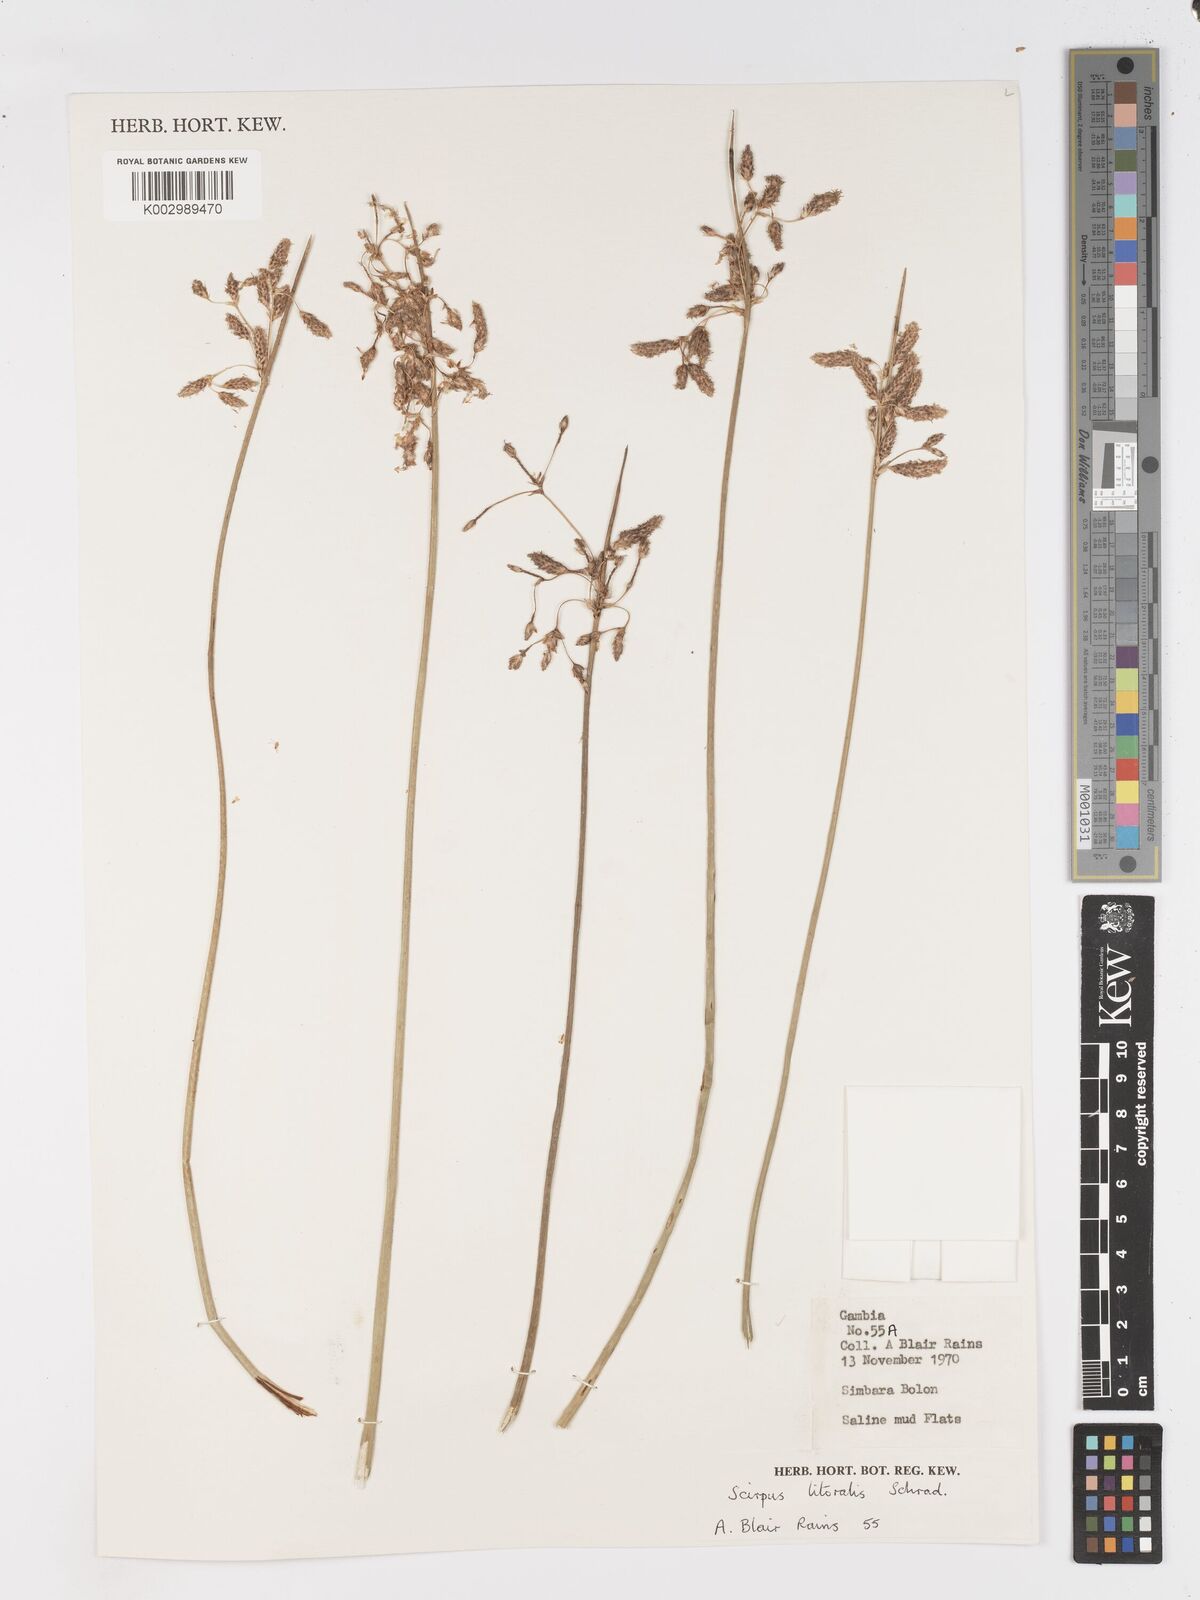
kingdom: Plantae
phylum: Tracheophyta
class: Liliopsida
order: Poales
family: Cyperaceae
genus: Schoenoplectus
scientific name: Schoenoplectus litoralis
